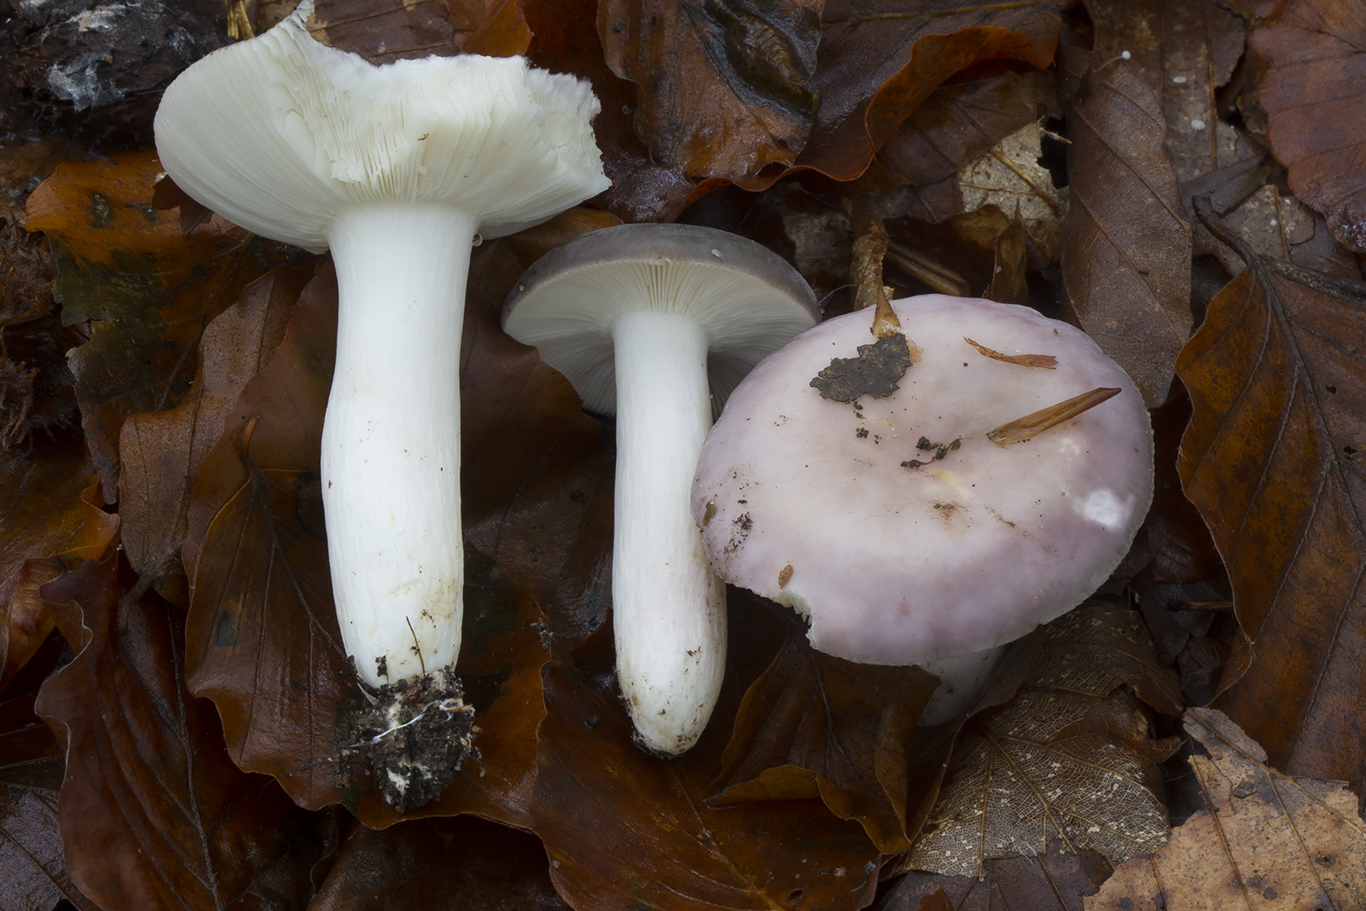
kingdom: Fungi
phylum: Basidiomycota
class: Agaricomycetes
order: Russulales
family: Russulaceae
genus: Russula
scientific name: Russula ionochlora
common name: violetgrøn skørhat
